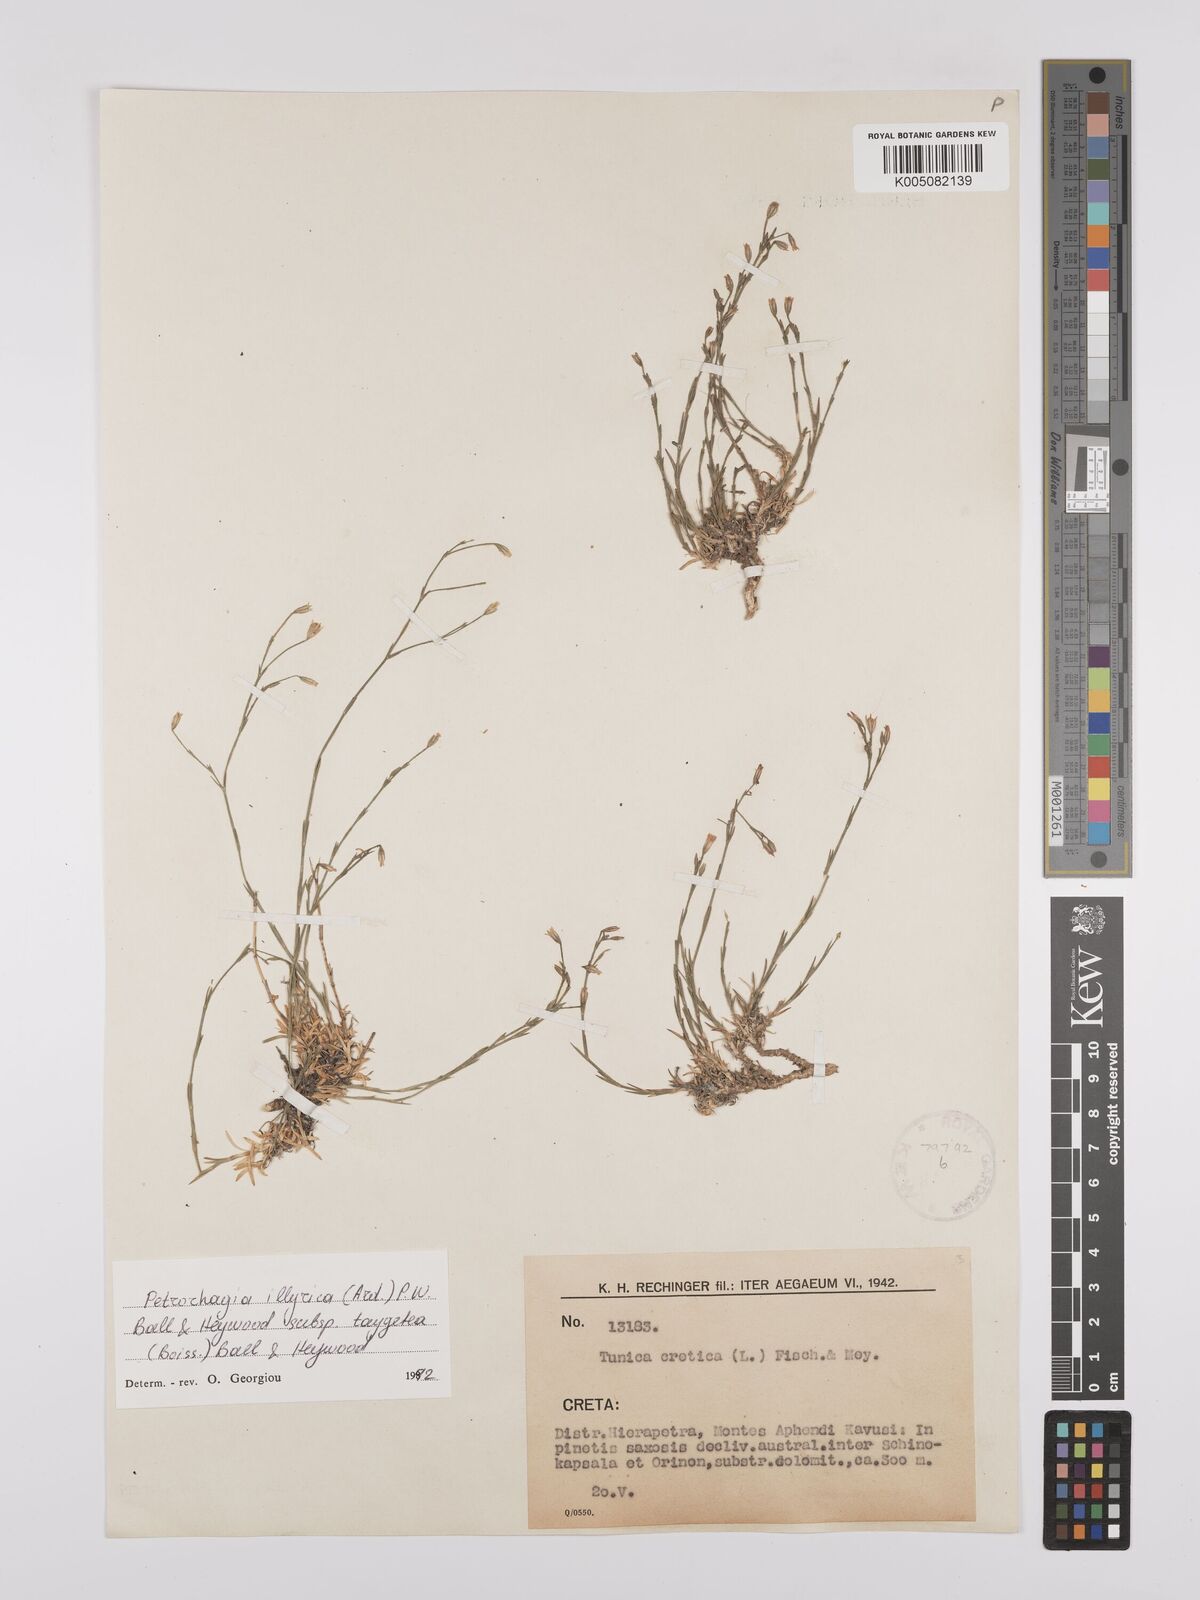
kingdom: Plantae
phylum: Tracheophyta
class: Magnoliopsida
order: Caryophyllales
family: Caryophyllaceae
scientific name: Caryophyllaceae
